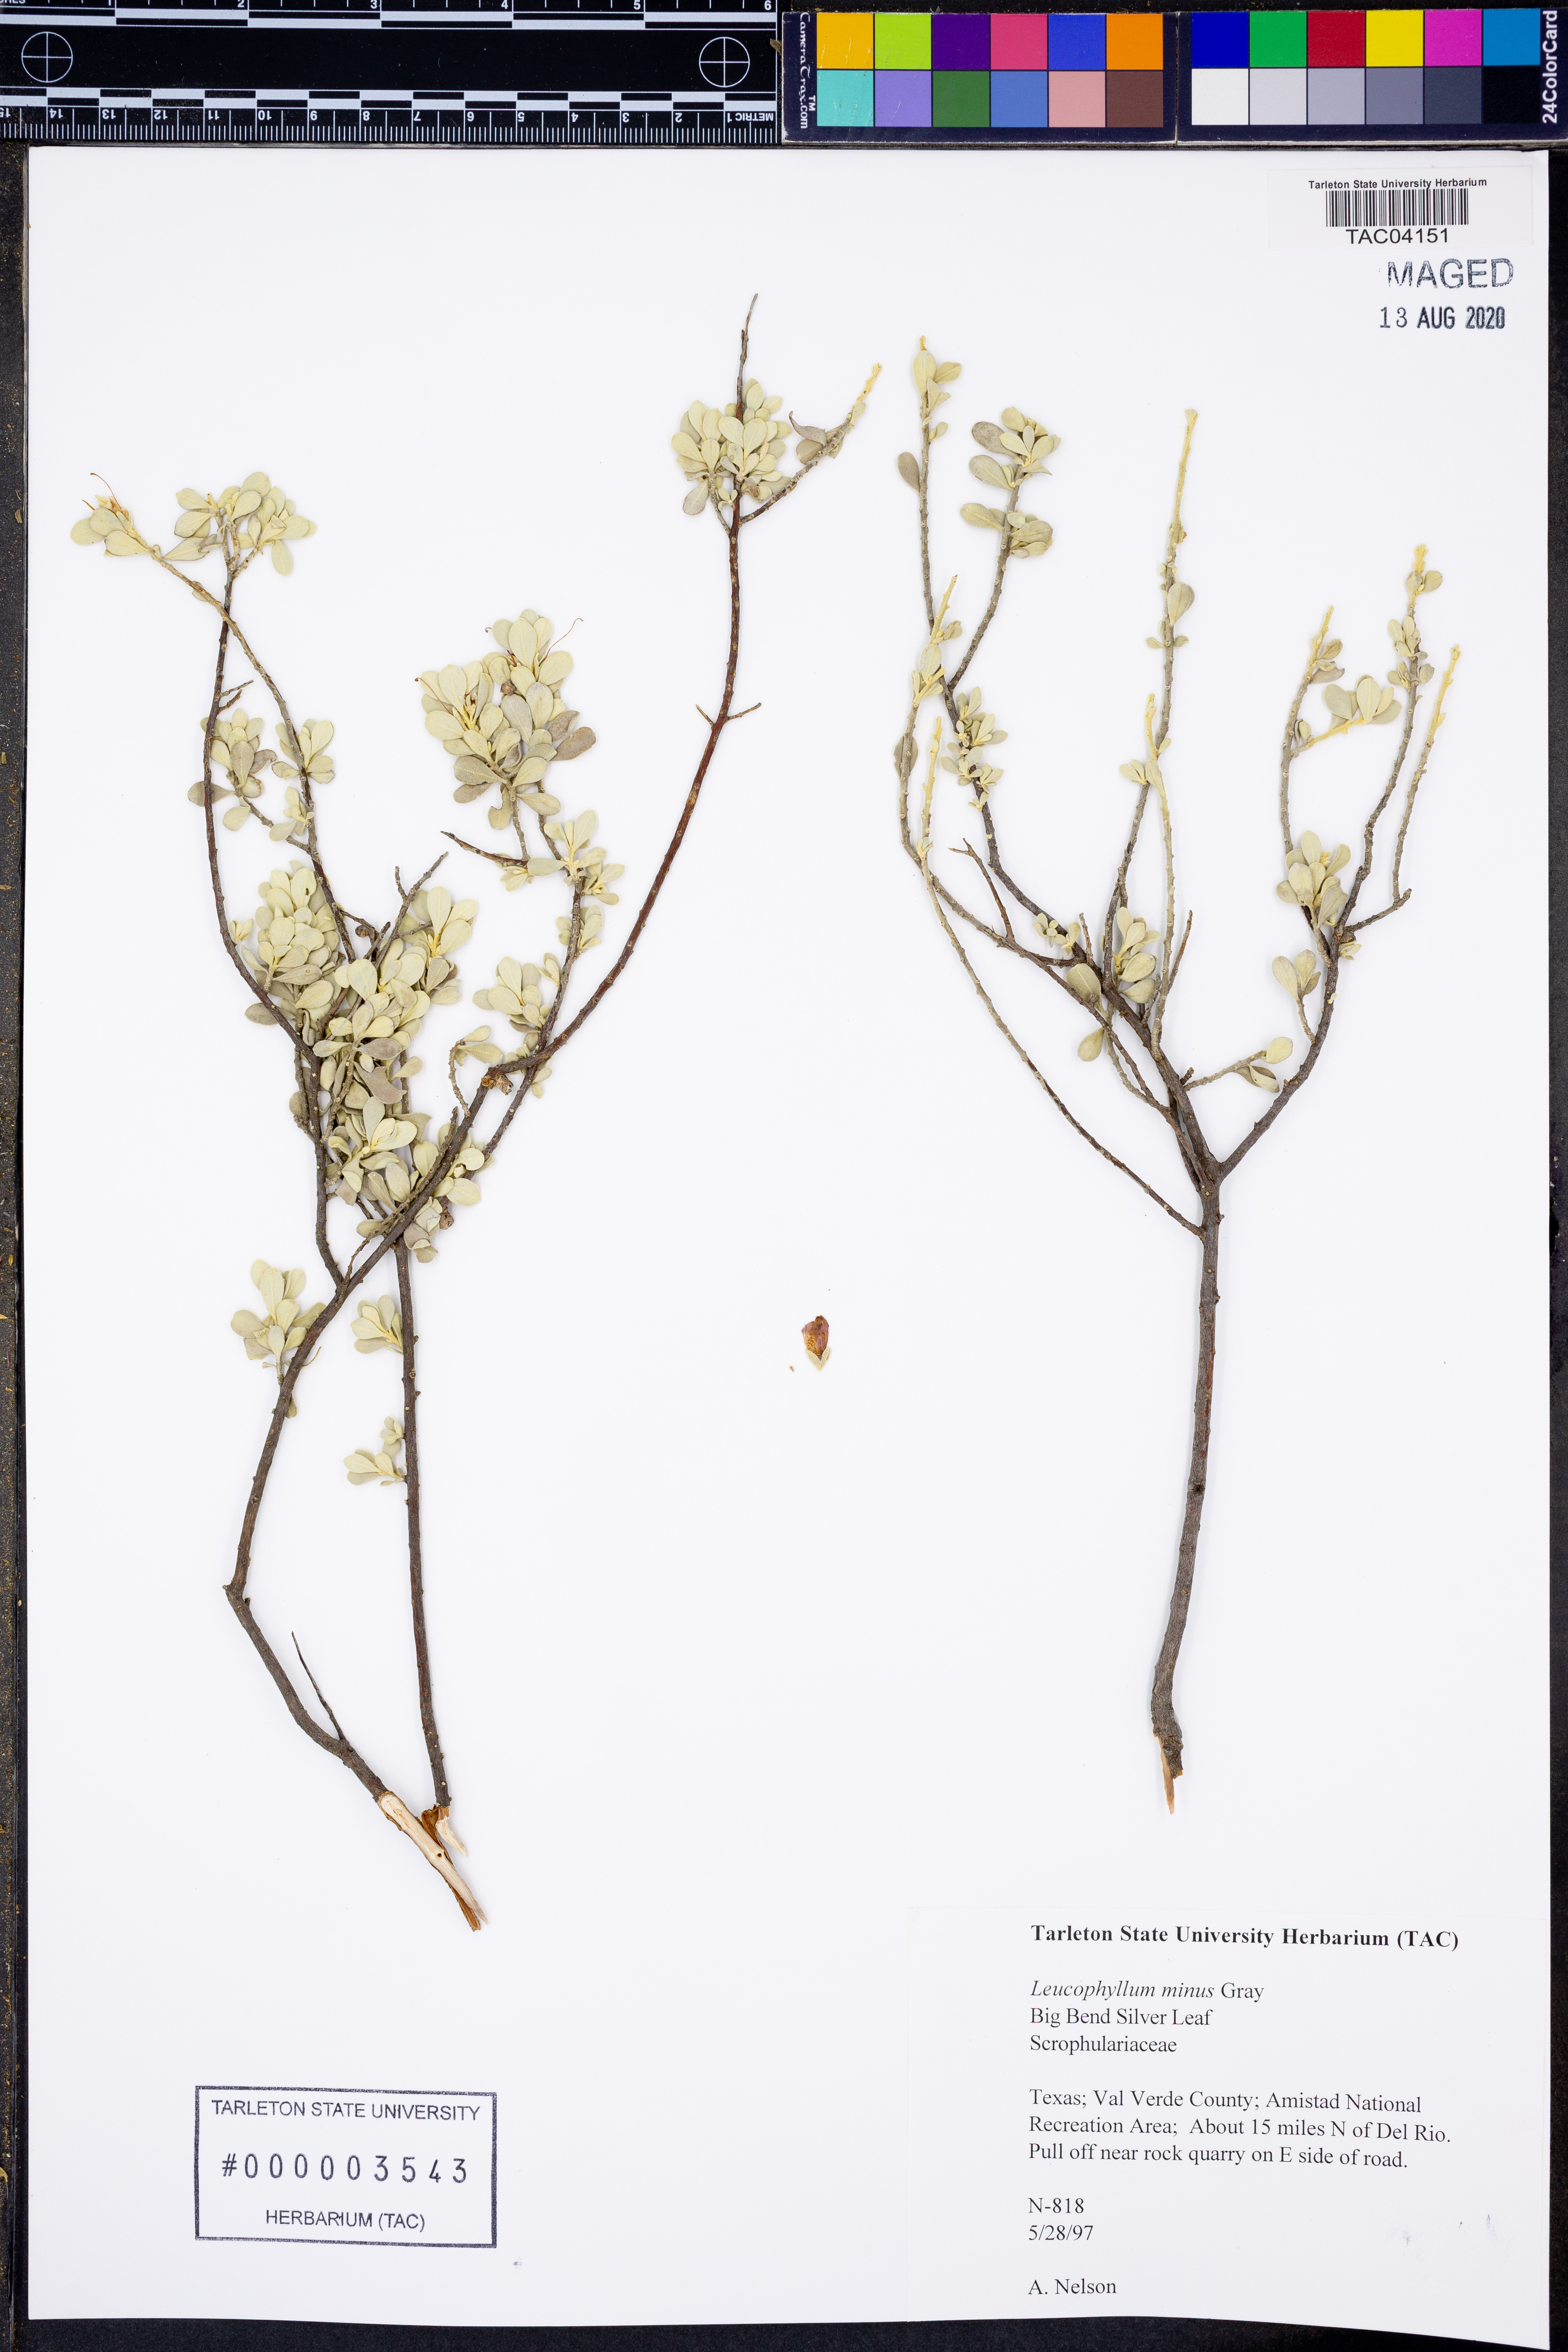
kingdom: Plantae
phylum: Tracheophyta
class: Magnoliopsida
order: Lamiales
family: Scrophulariaceae
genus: Leucophyllum
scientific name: Leucophyllum minus
